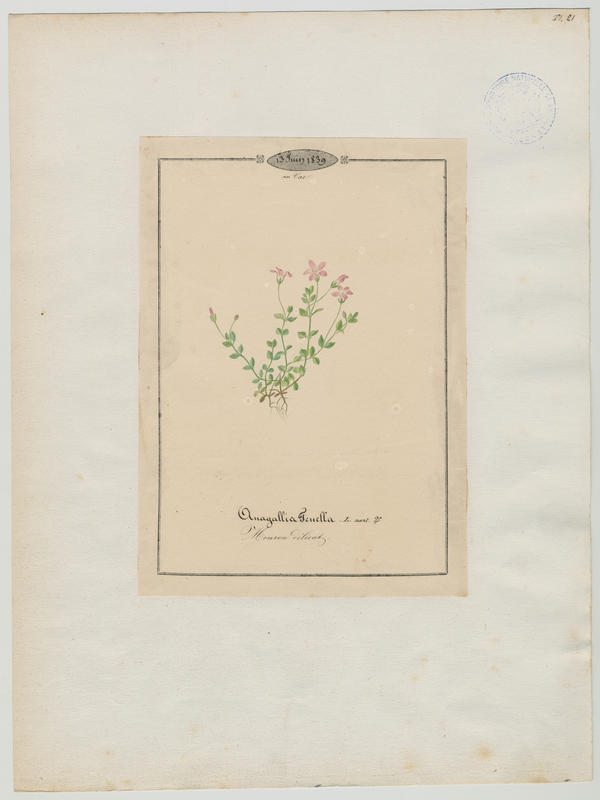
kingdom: Plantae
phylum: Tracheophyta
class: Magnoliopsida
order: Ericales
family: Primulaceae
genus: Lysimachia
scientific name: Lysimachia tenella
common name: European bog pimpernel
